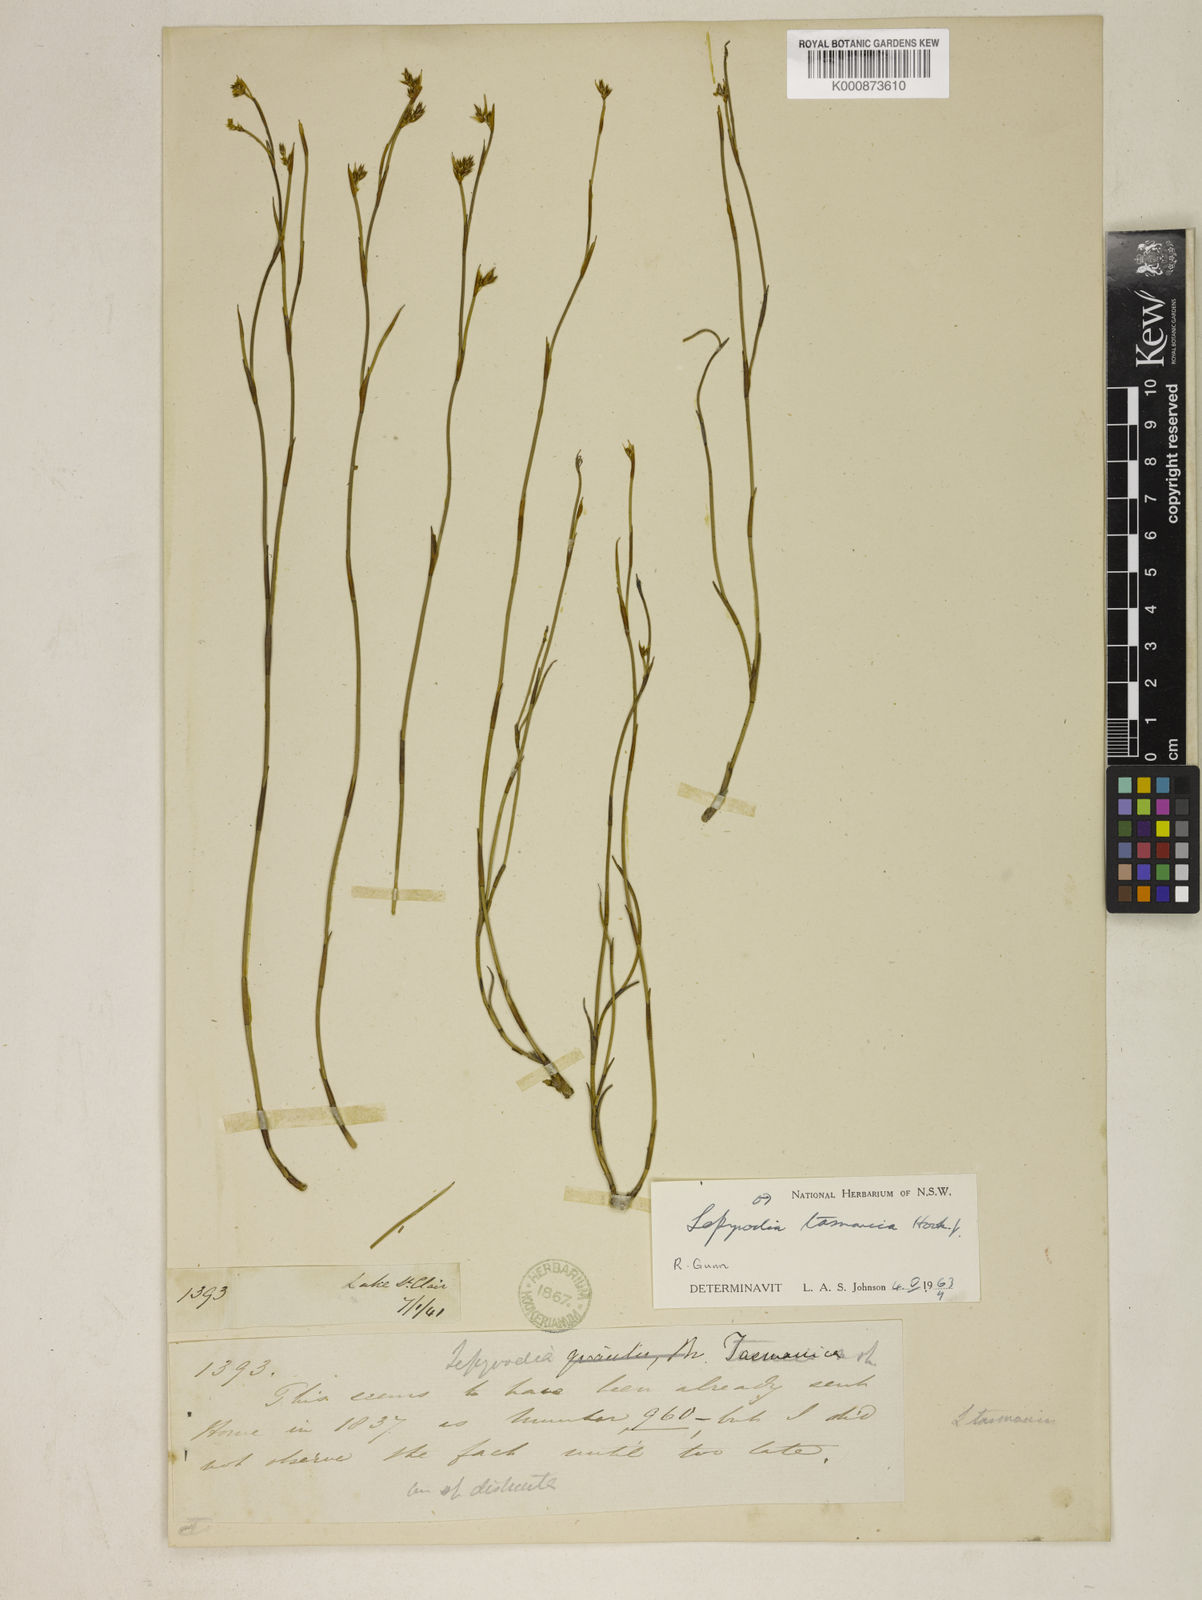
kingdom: Plantae
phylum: Tracheophyta
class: Liliopsida
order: Poales
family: Restionaceae
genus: Sporadanthus
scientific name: Sporadanthus tasmanicus
